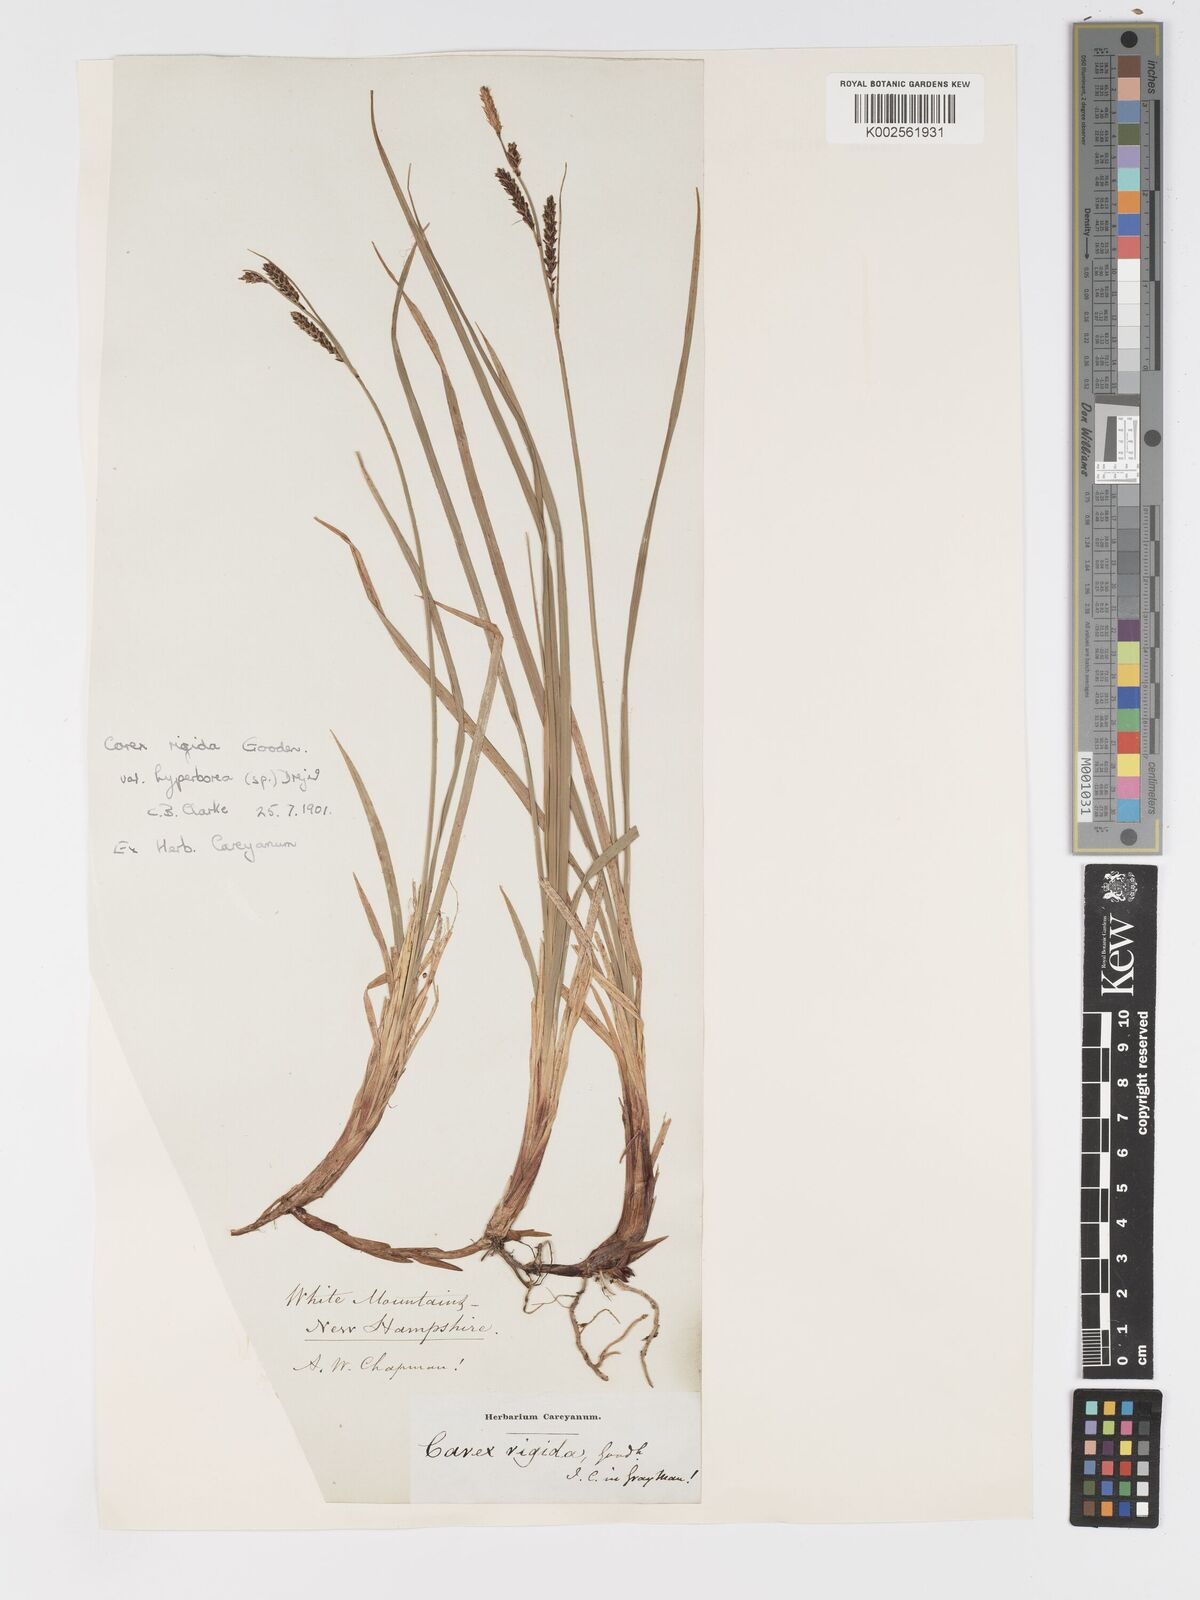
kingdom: Plantae
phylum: Tracheophyta
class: Liliopsida
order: Poales
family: Cyperaceae
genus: Carex
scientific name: Carex bigelowii
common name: Stiff sedge
